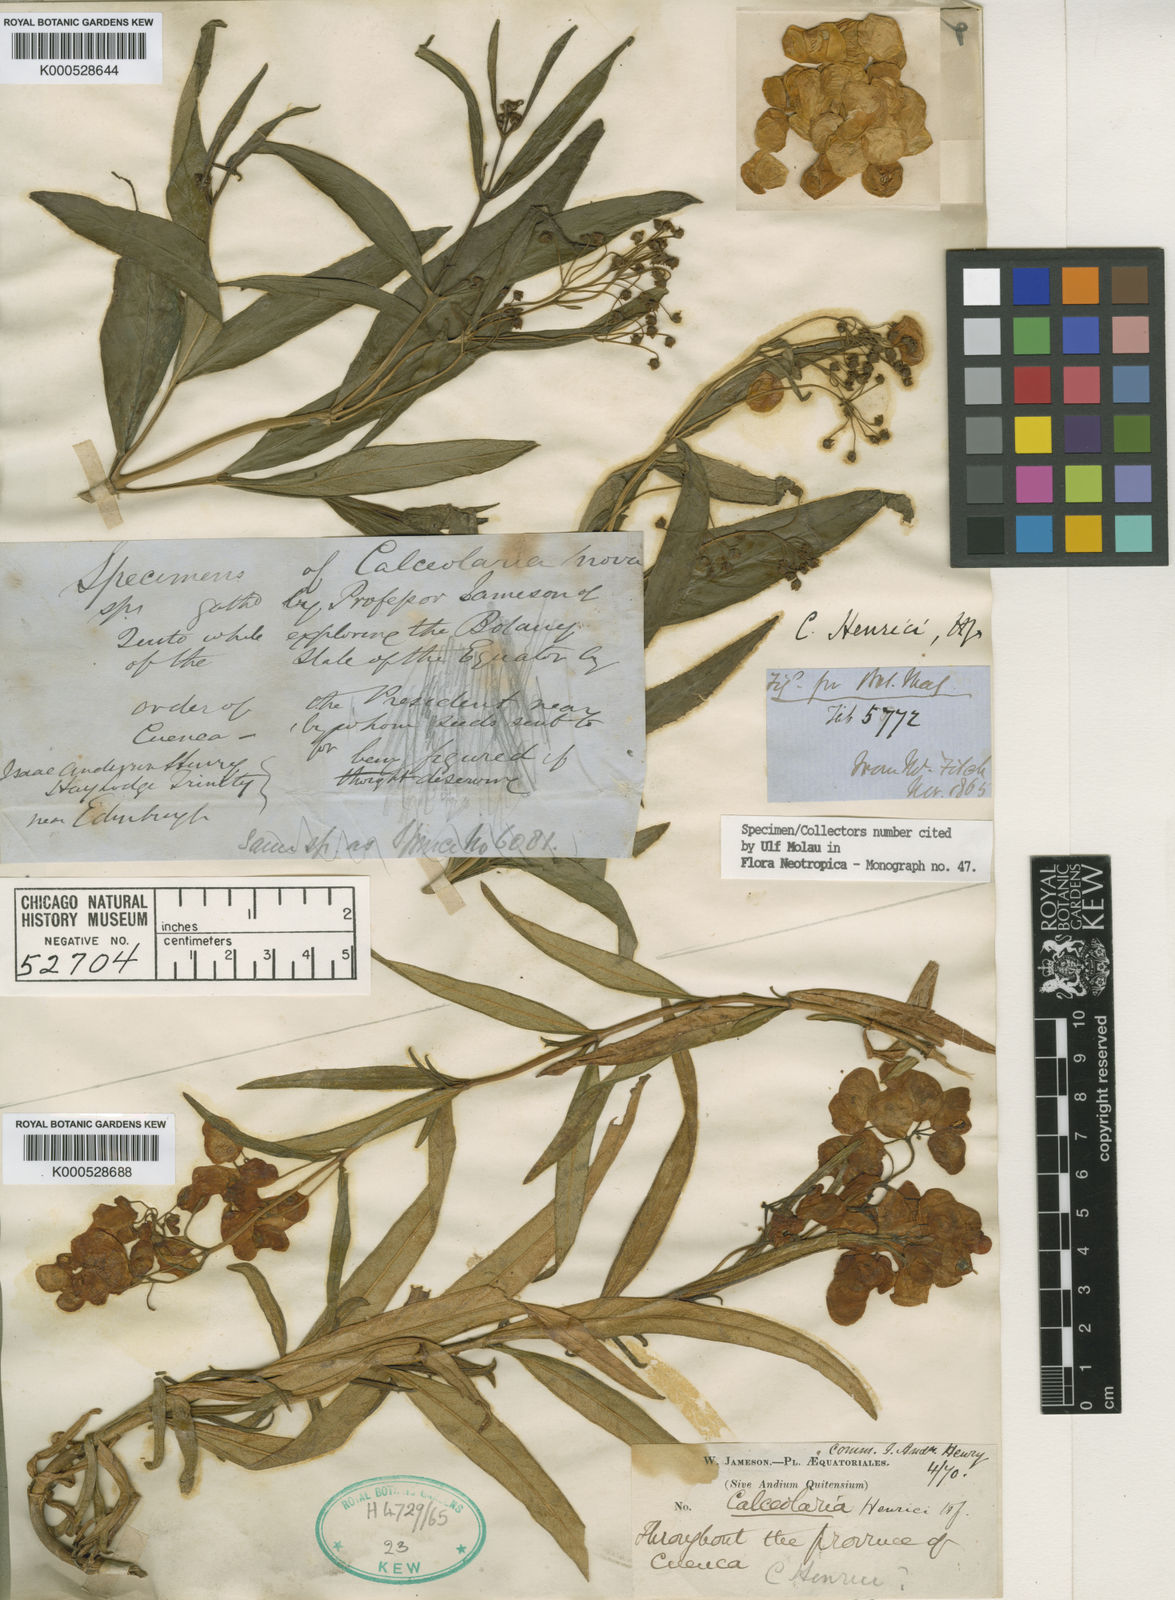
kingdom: Plantae
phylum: Tracheophyta
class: Magnoliopsida
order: Lamiales
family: Calceolariaceae
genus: Calceolaria
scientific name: Calceolaria rosmarinifolia
